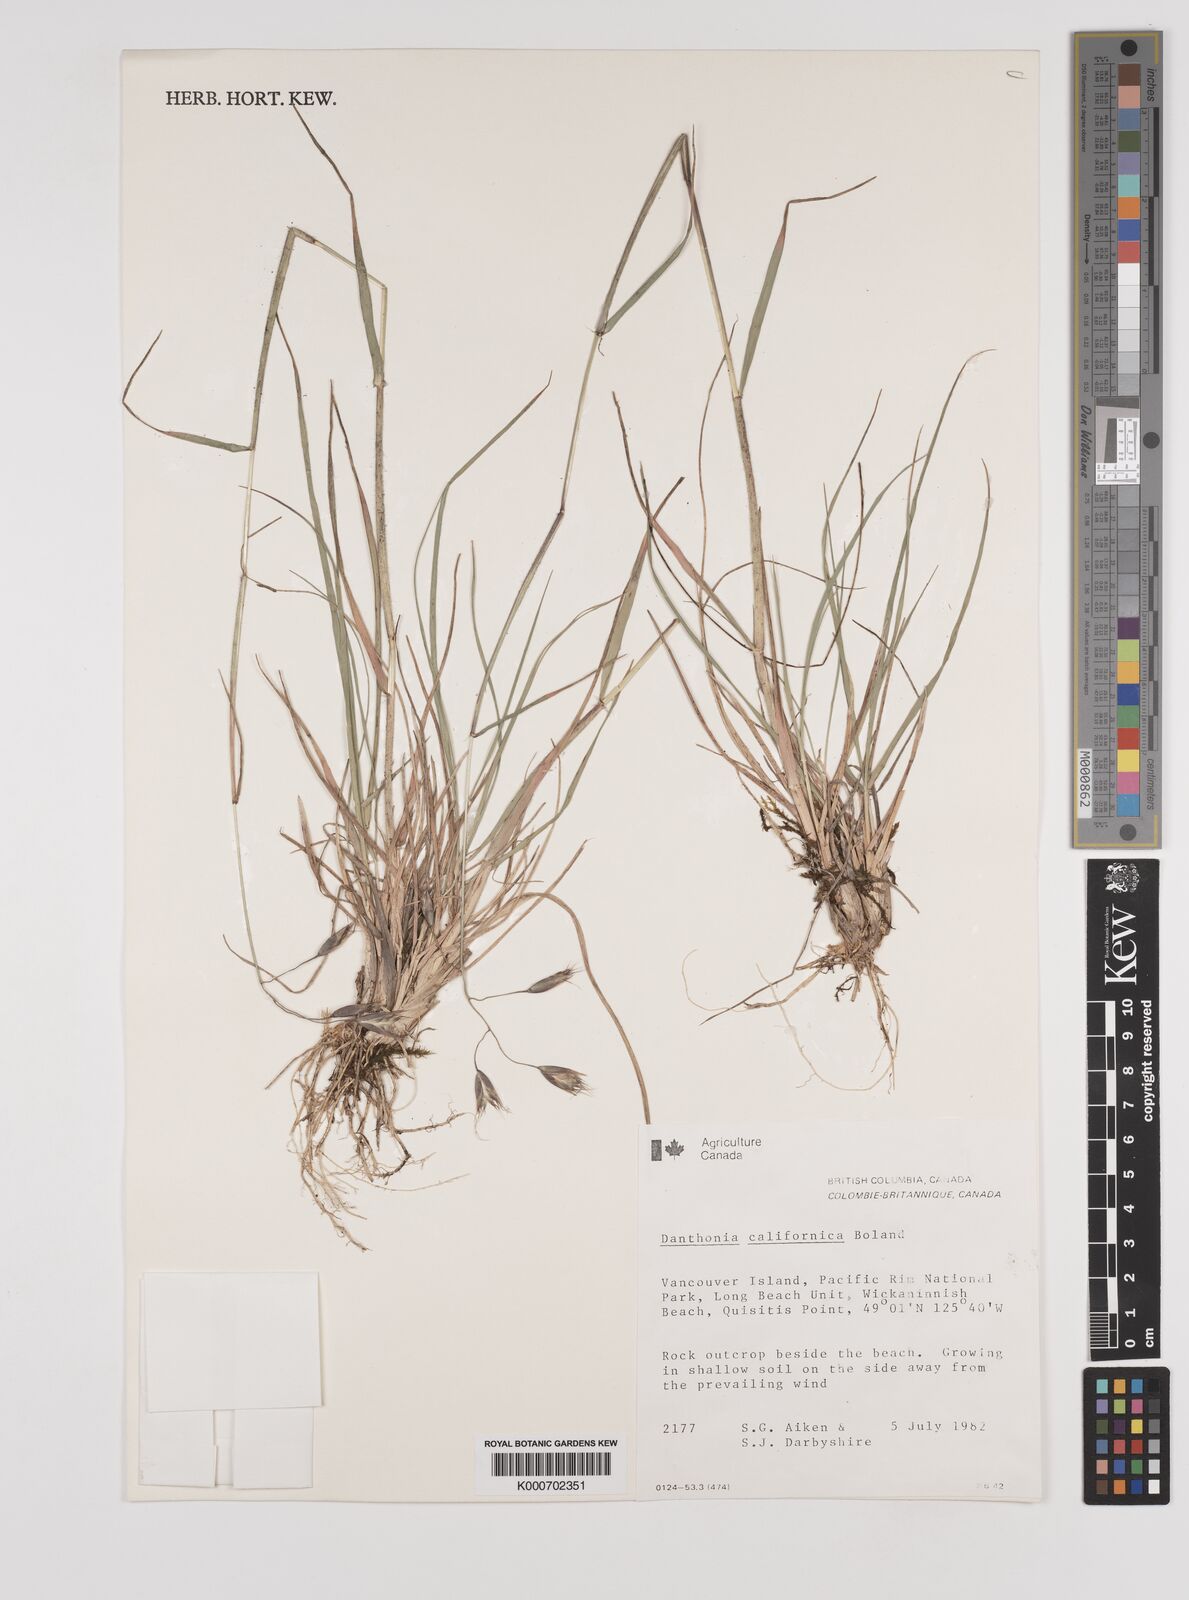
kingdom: Plantae
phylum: Tracheophyta
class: Liliopsida
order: Poales
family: Poaceae
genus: Danthonia
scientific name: Danthonia californica
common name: California oat grass
